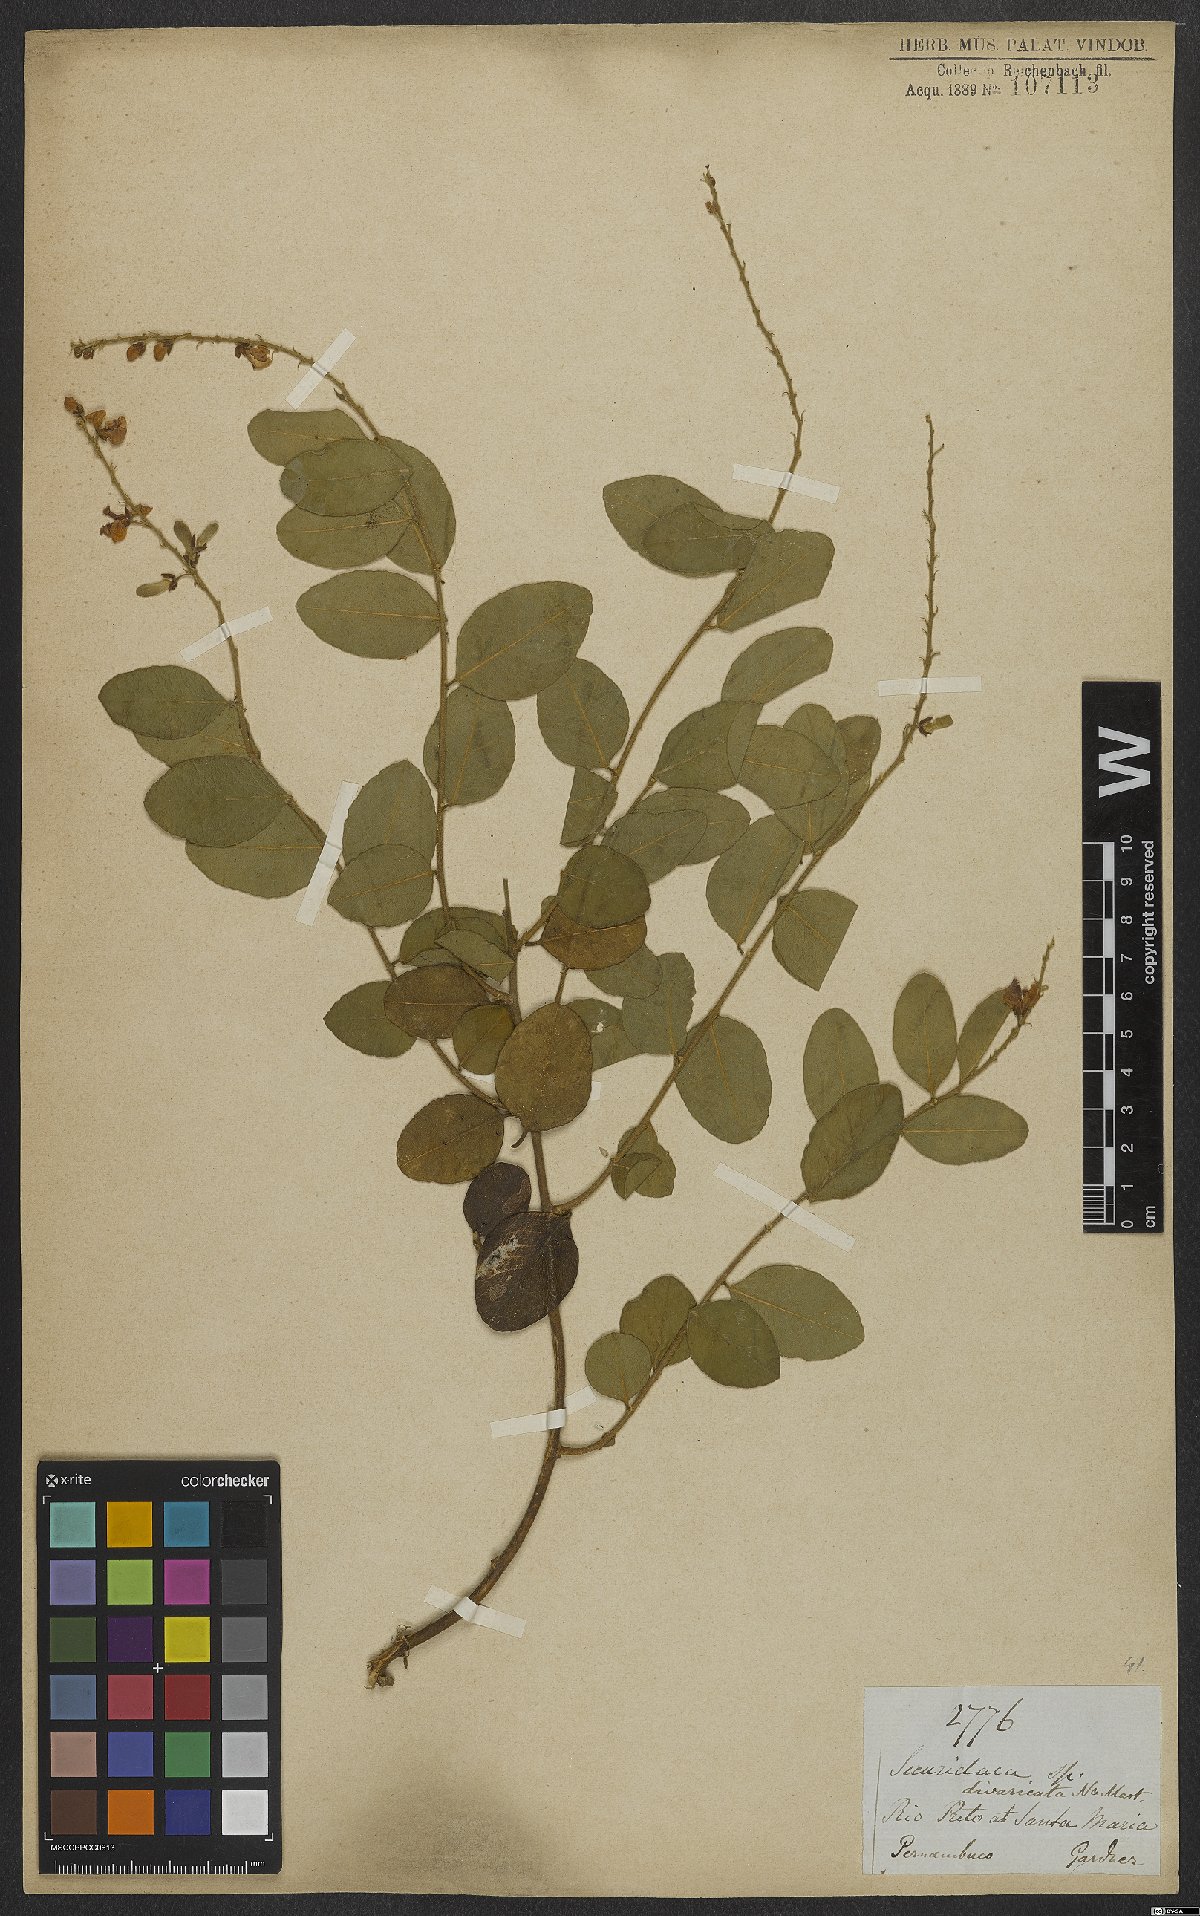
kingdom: Plantae
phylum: Tracheophyta
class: Magnoliopsida
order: Fabales
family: Polygalaceae
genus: Securidaca
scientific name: Securidaca rivinifolia
